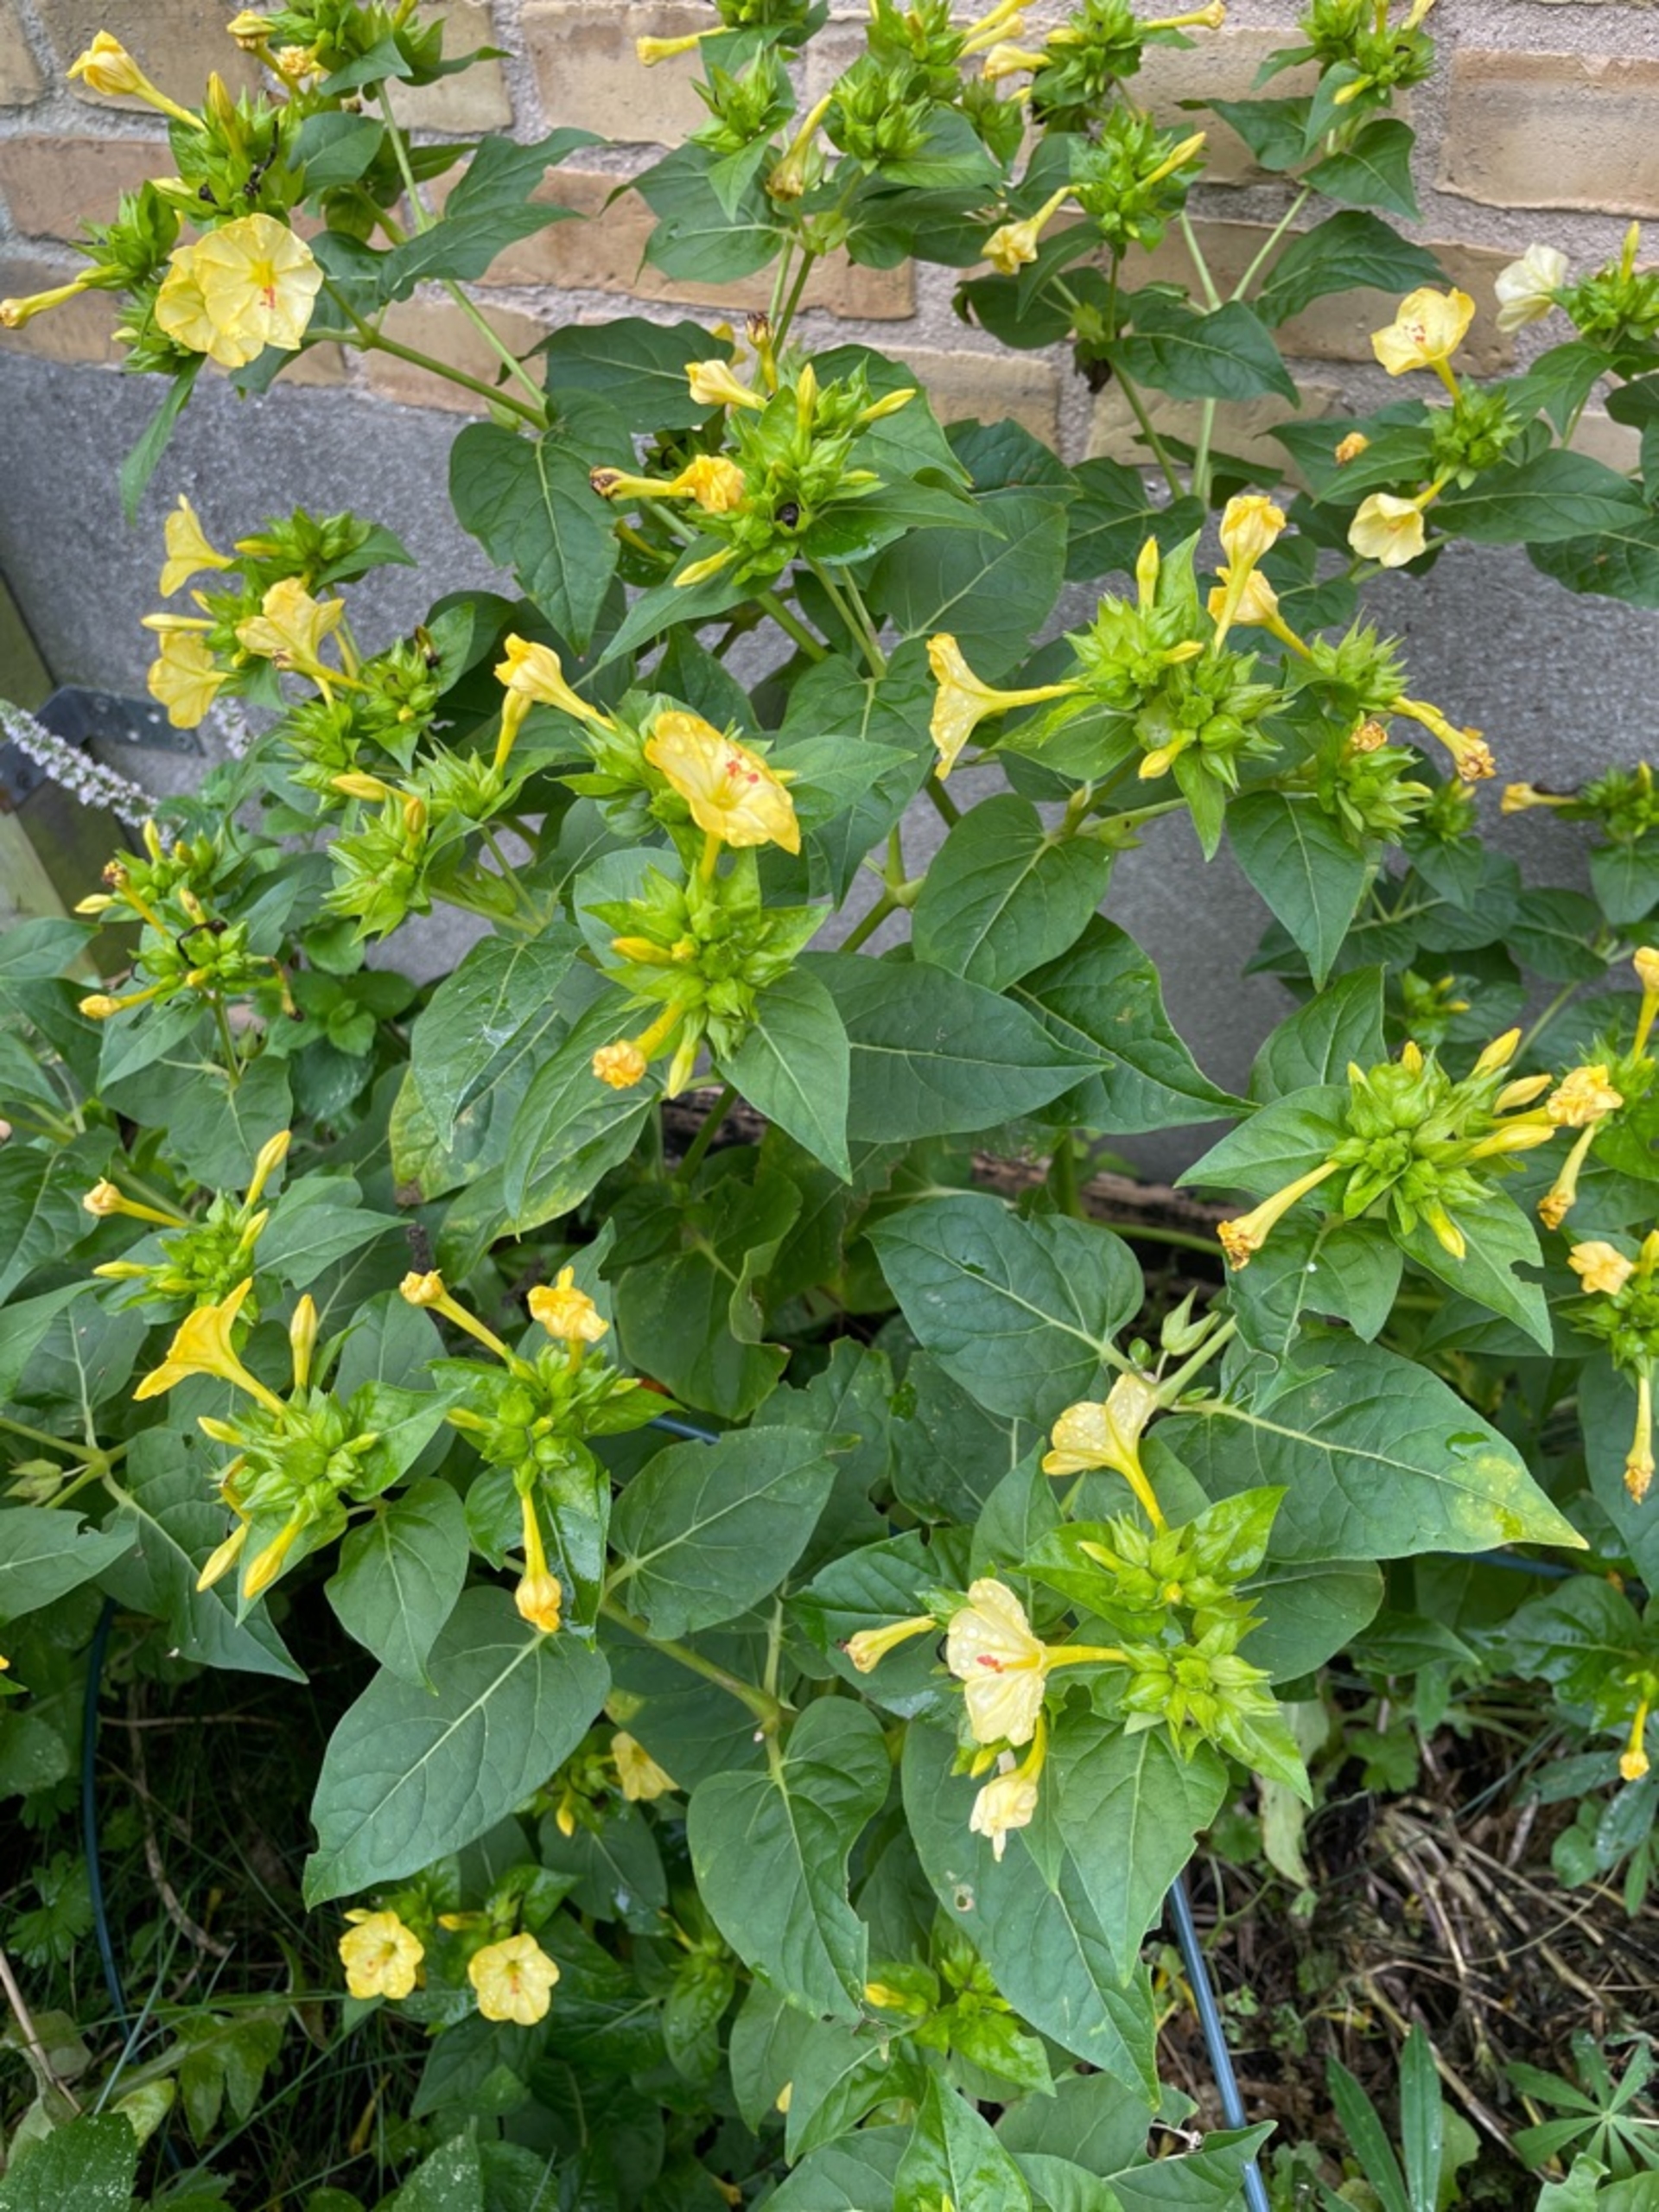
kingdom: Plantae
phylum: Tracheophyta
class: Magnoliopsida
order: Caryophyllales
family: Nyctaginaceae
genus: Mirabilis
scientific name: Mirabilis jalapa
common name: Vidunderblomst
